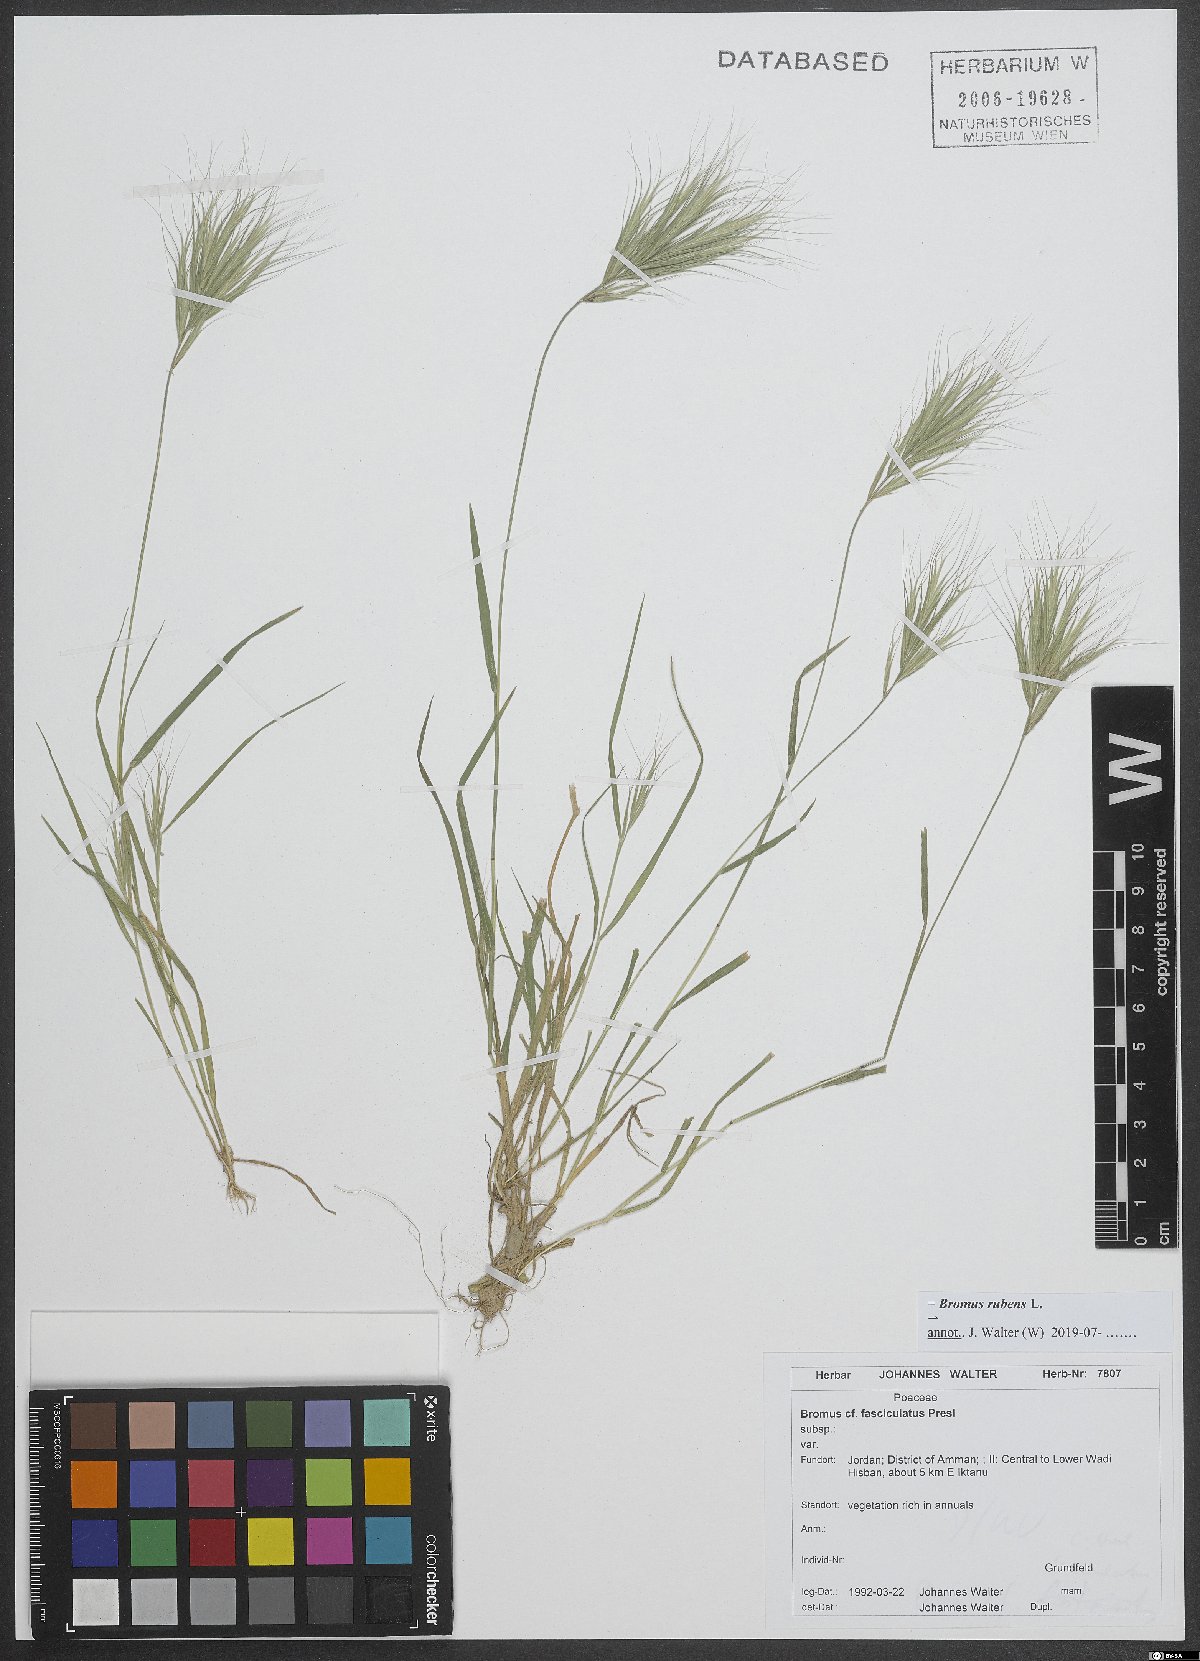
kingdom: Plantae
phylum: Tracheophyta
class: Liliopsida
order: Poales
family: Poaceae
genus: Bromus
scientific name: Bromus rubens
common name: Red brome
